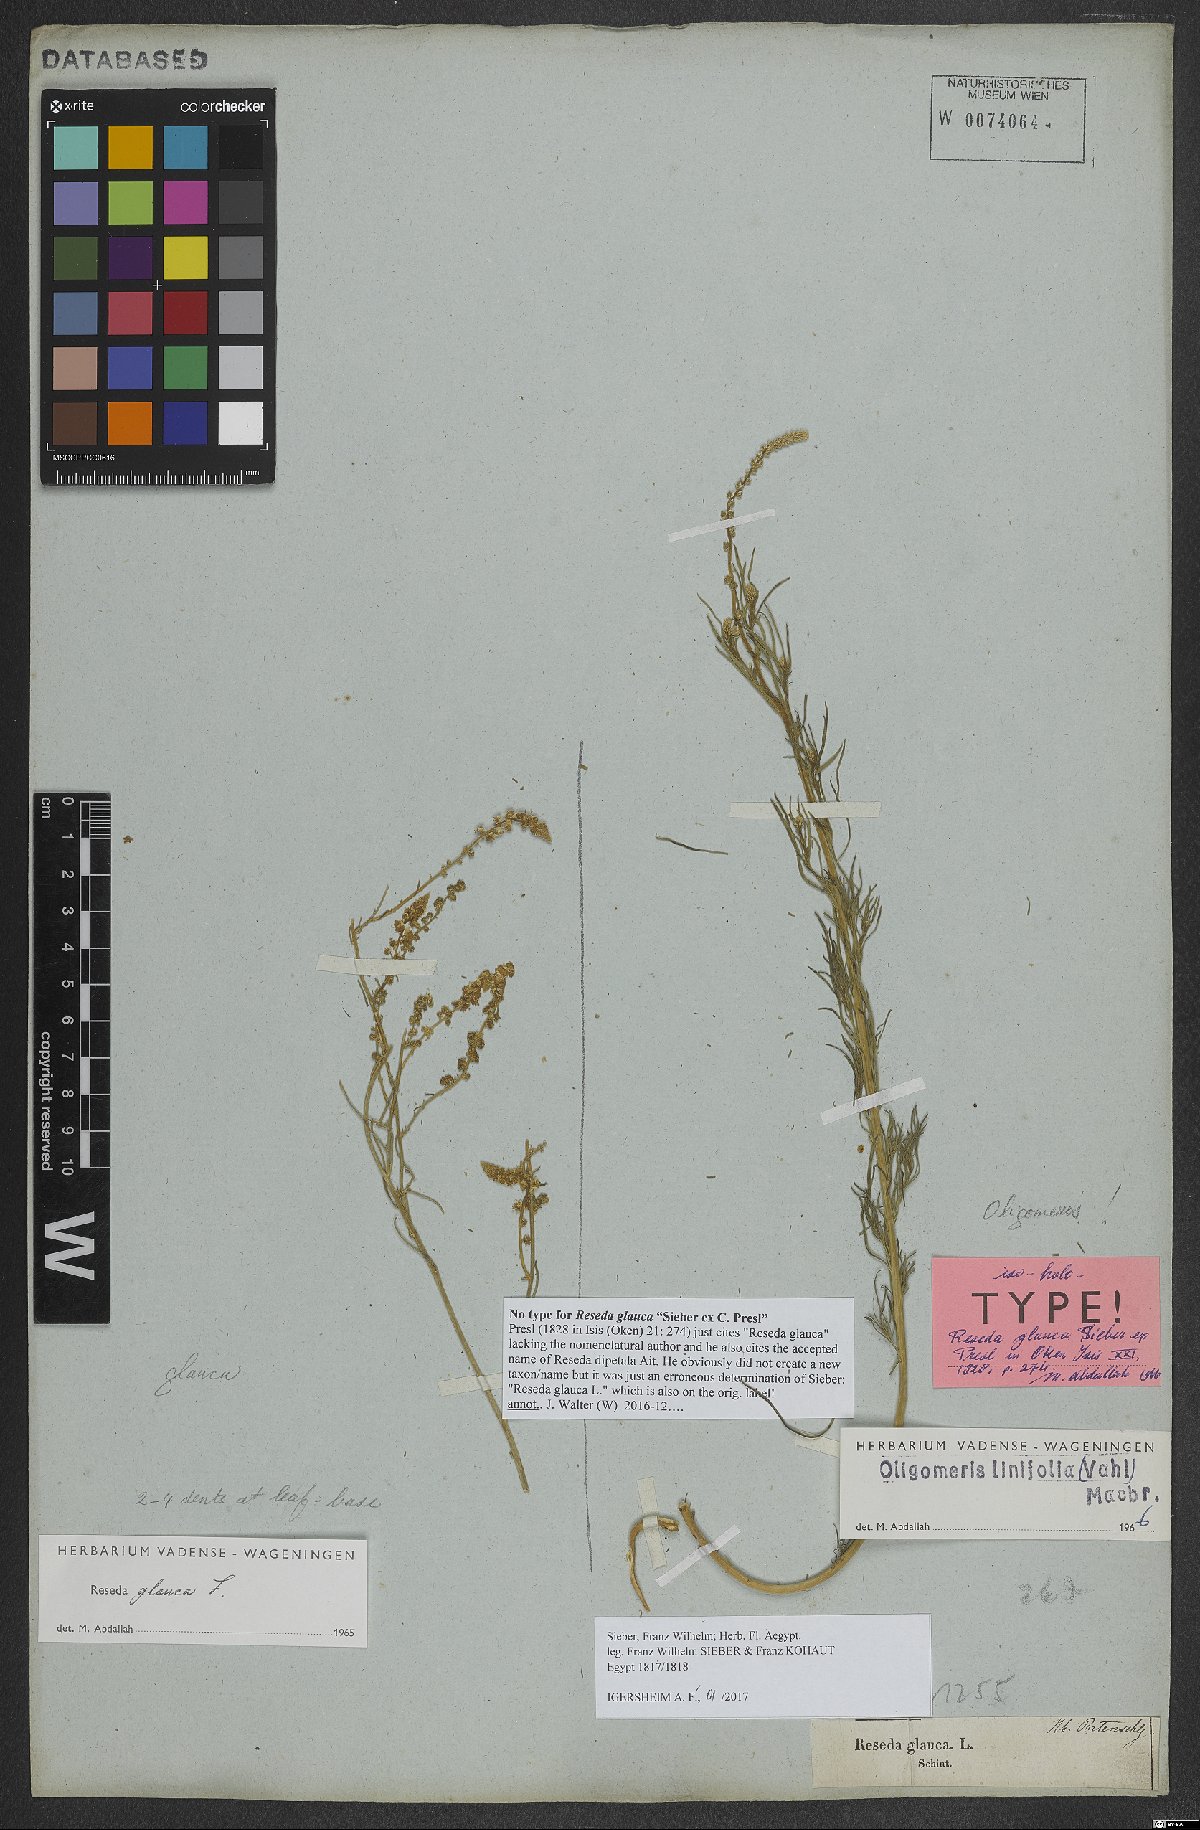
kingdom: Plantae
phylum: Tracheophyta
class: Magnoliopsida
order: Brassicales
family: Resedaceae
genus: Oligomeris
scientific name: Oligomeris linifolia
